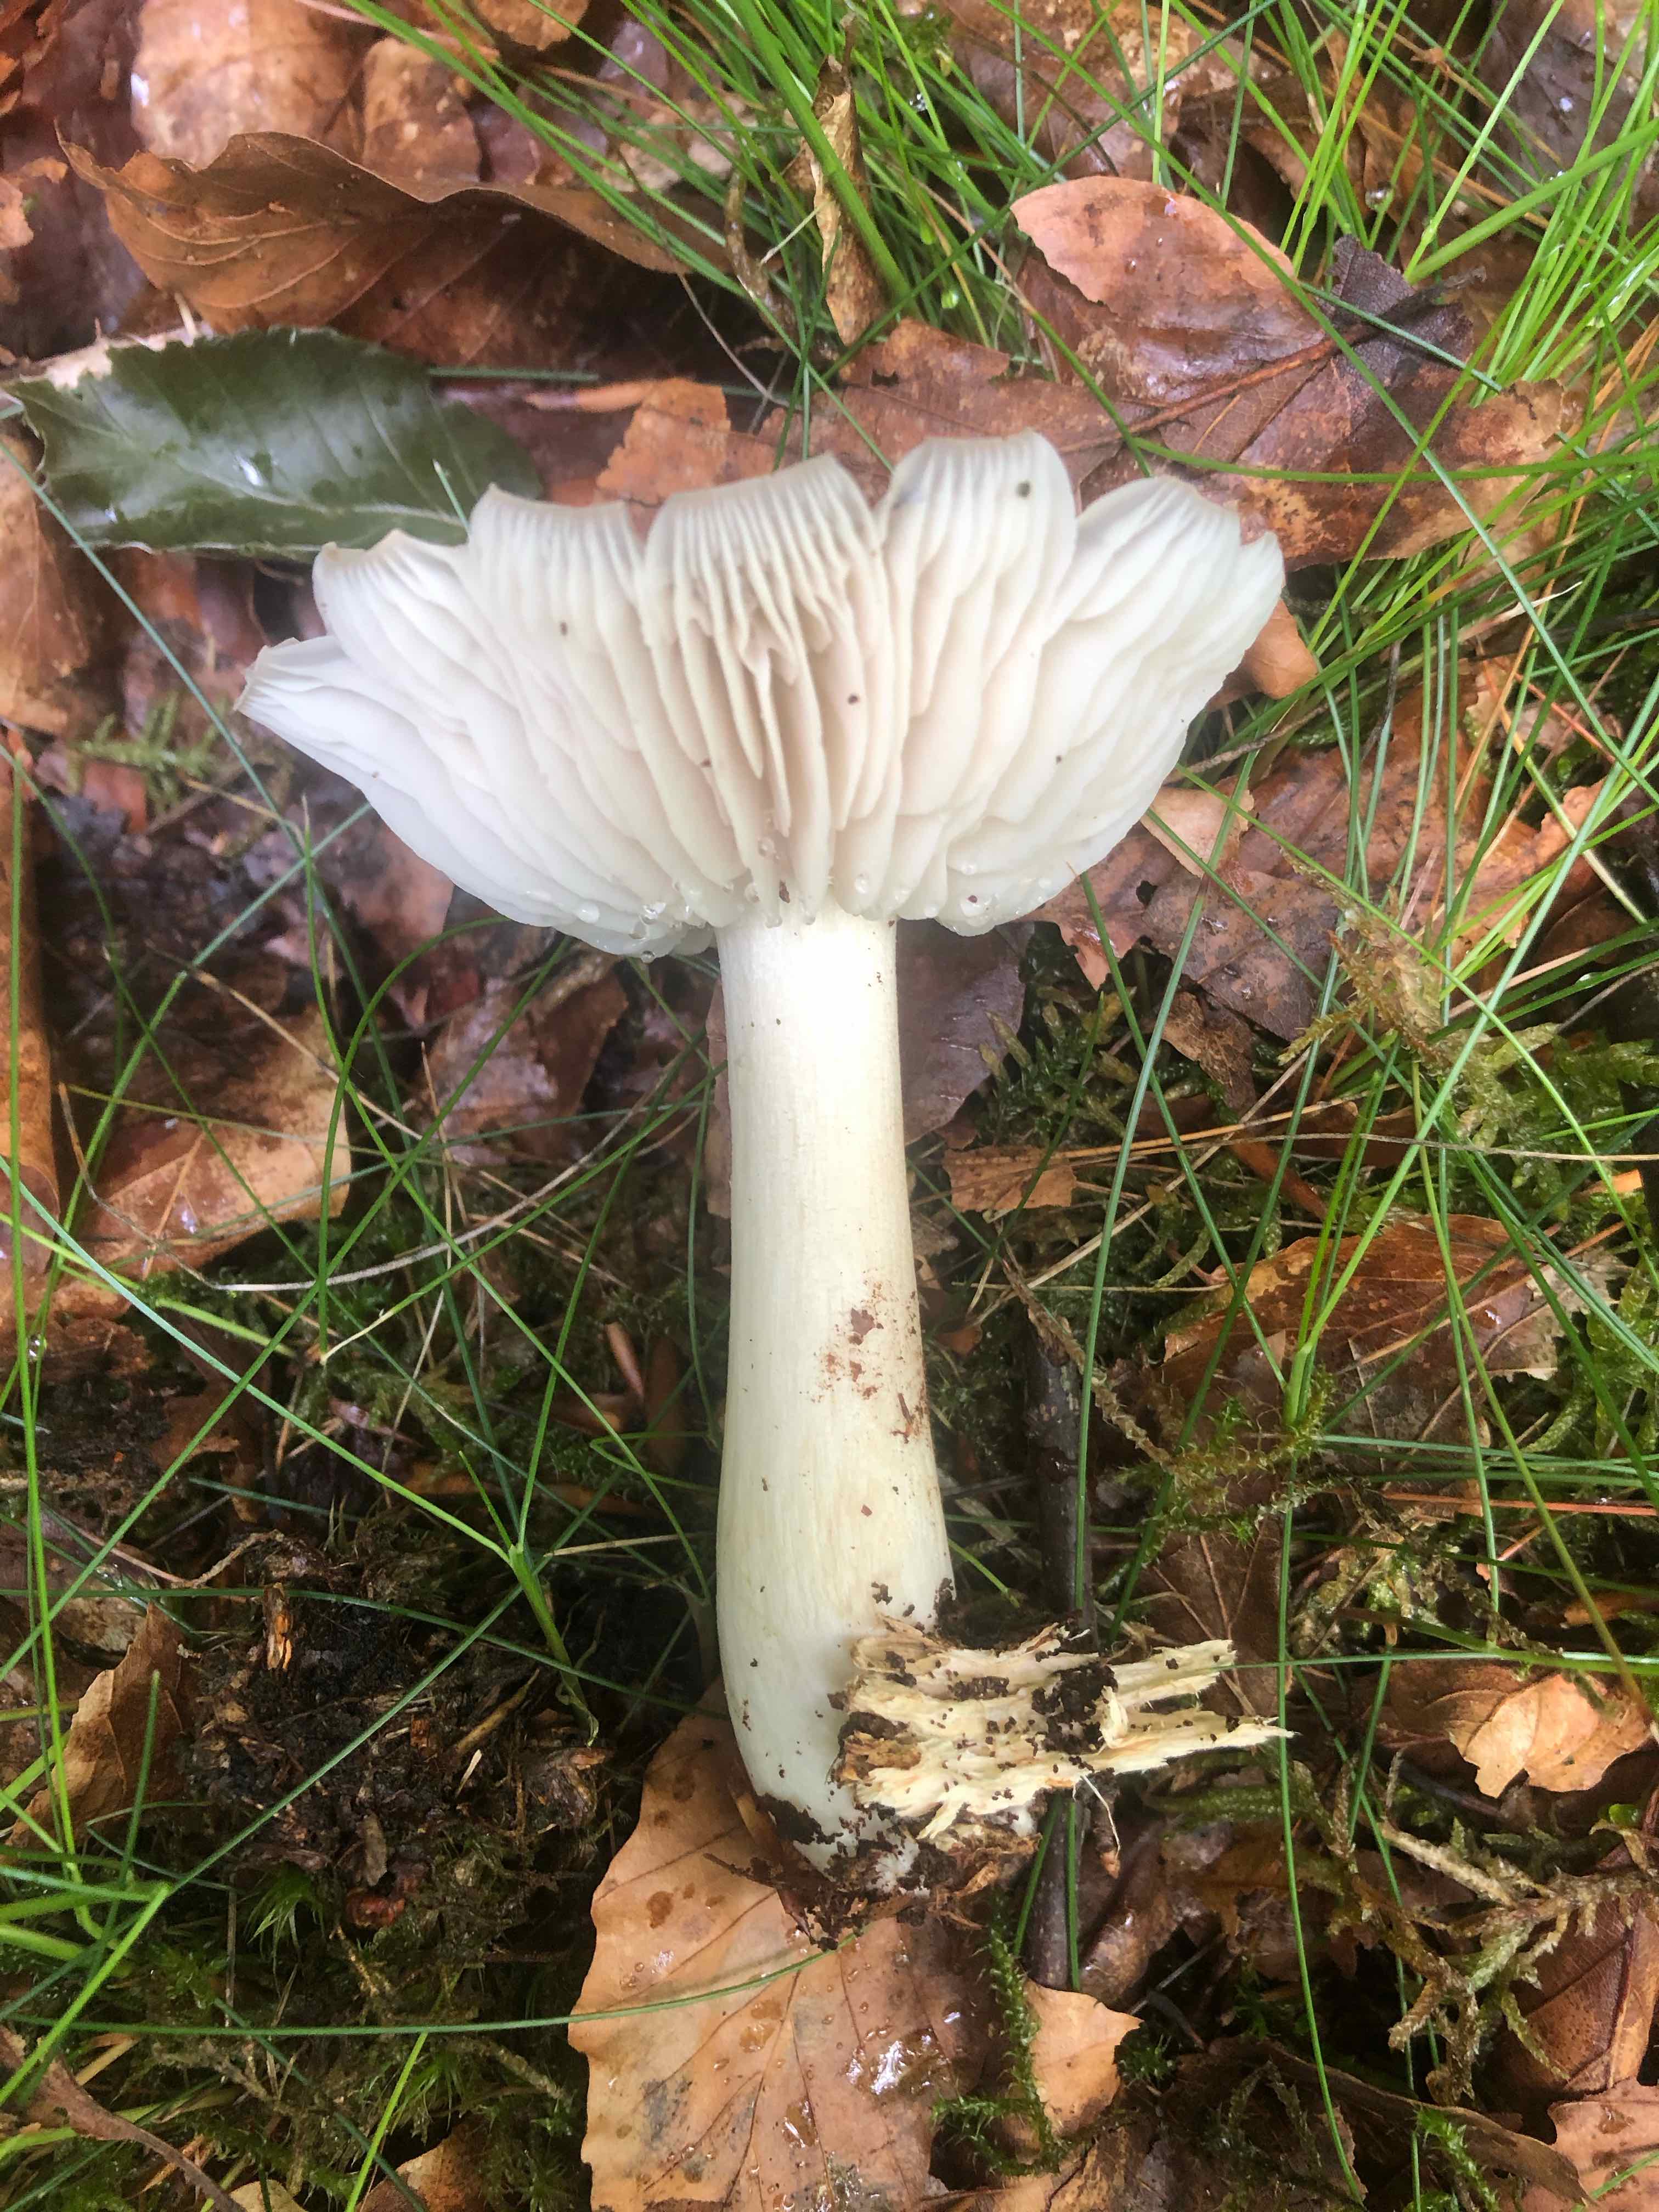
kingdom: Fungi
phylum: Basidiomycota
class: Agaricomycetes
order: Agaricales
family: Tricholomataceae
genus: Megacollybia
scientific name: Megacollybia platyphylla
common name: bredbladet væbnerhat
